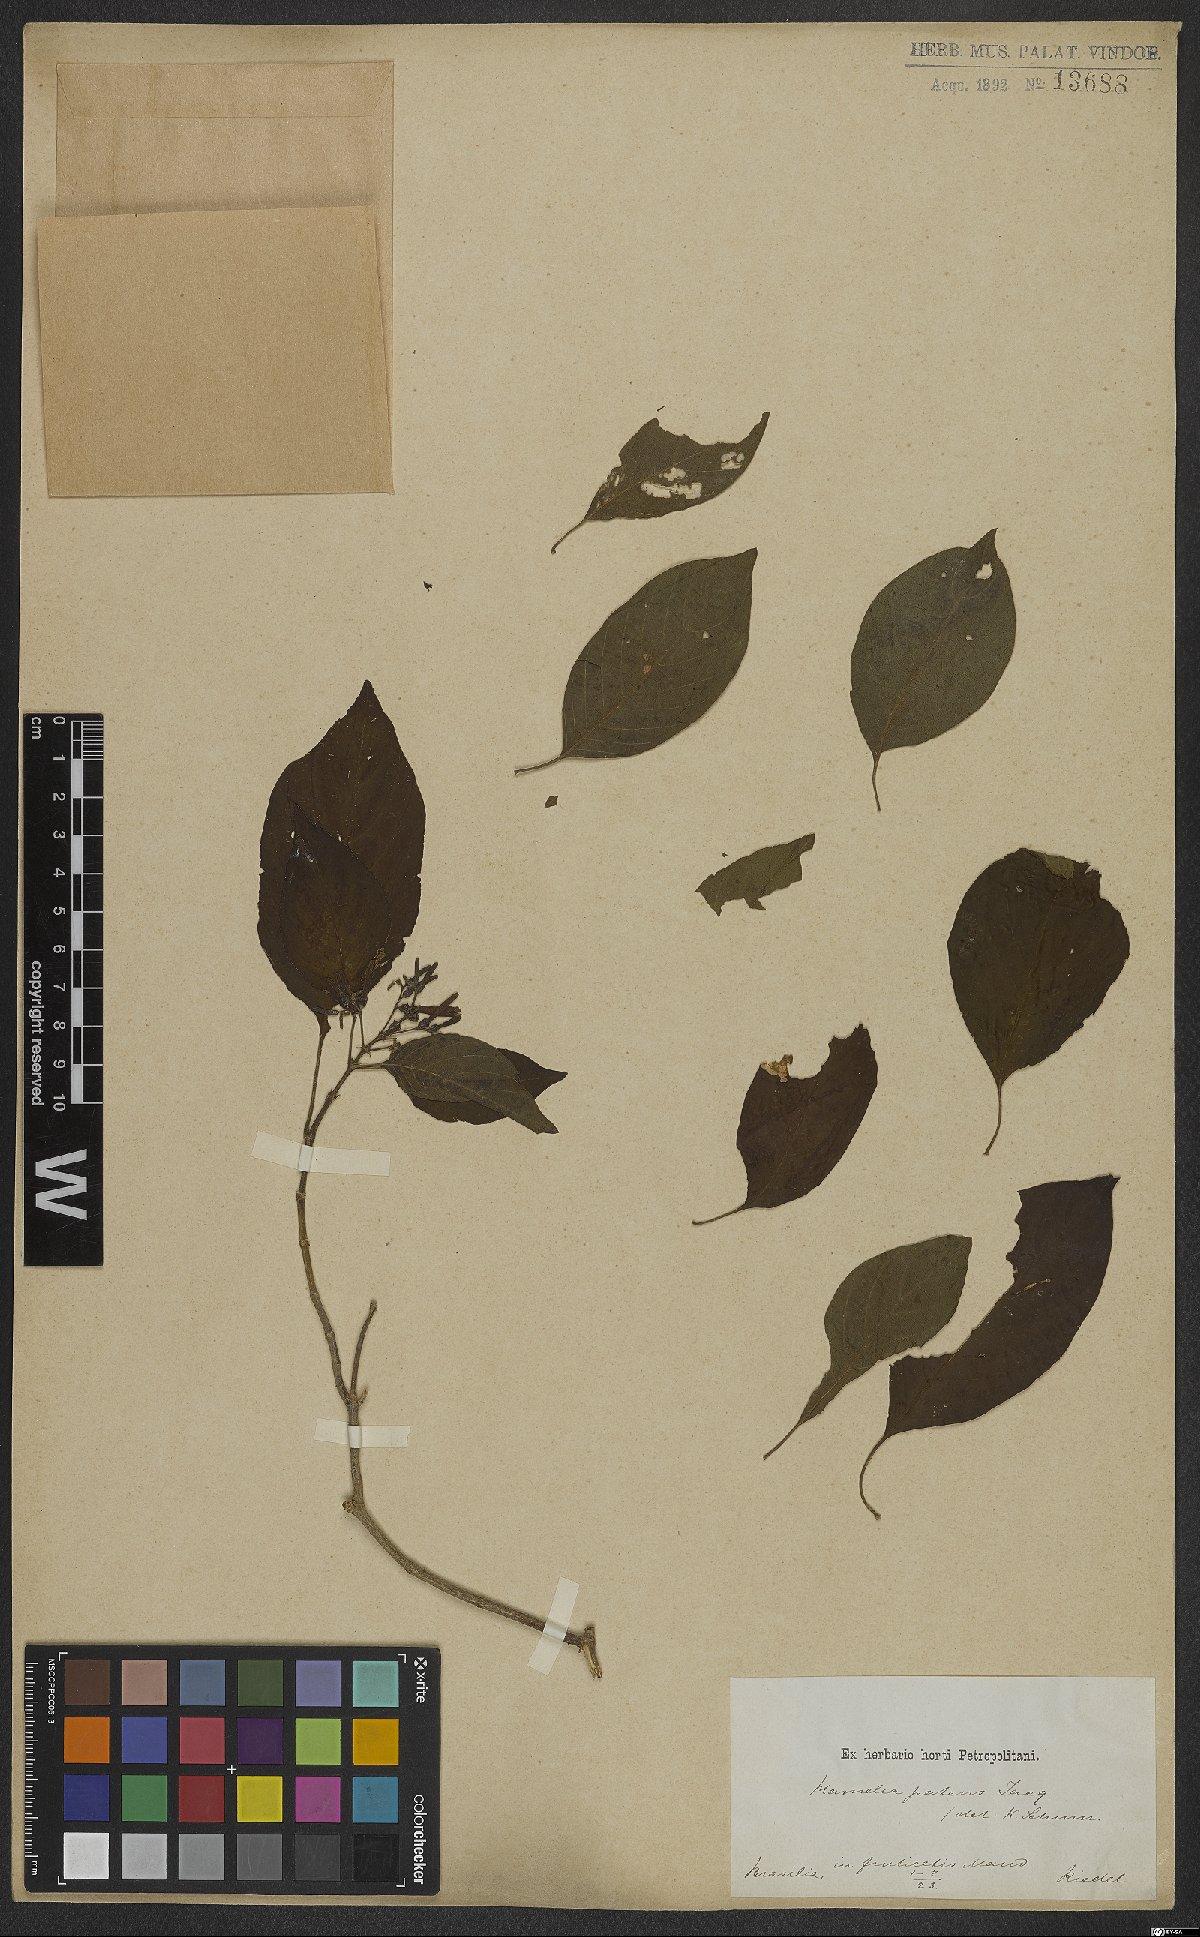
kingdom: Plantae
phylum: Tracheophyta
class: Magnoliopsida
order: Gentianales
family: Rubiaceae
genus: Hamelia
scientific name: Hamelia patens
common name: Redhead
